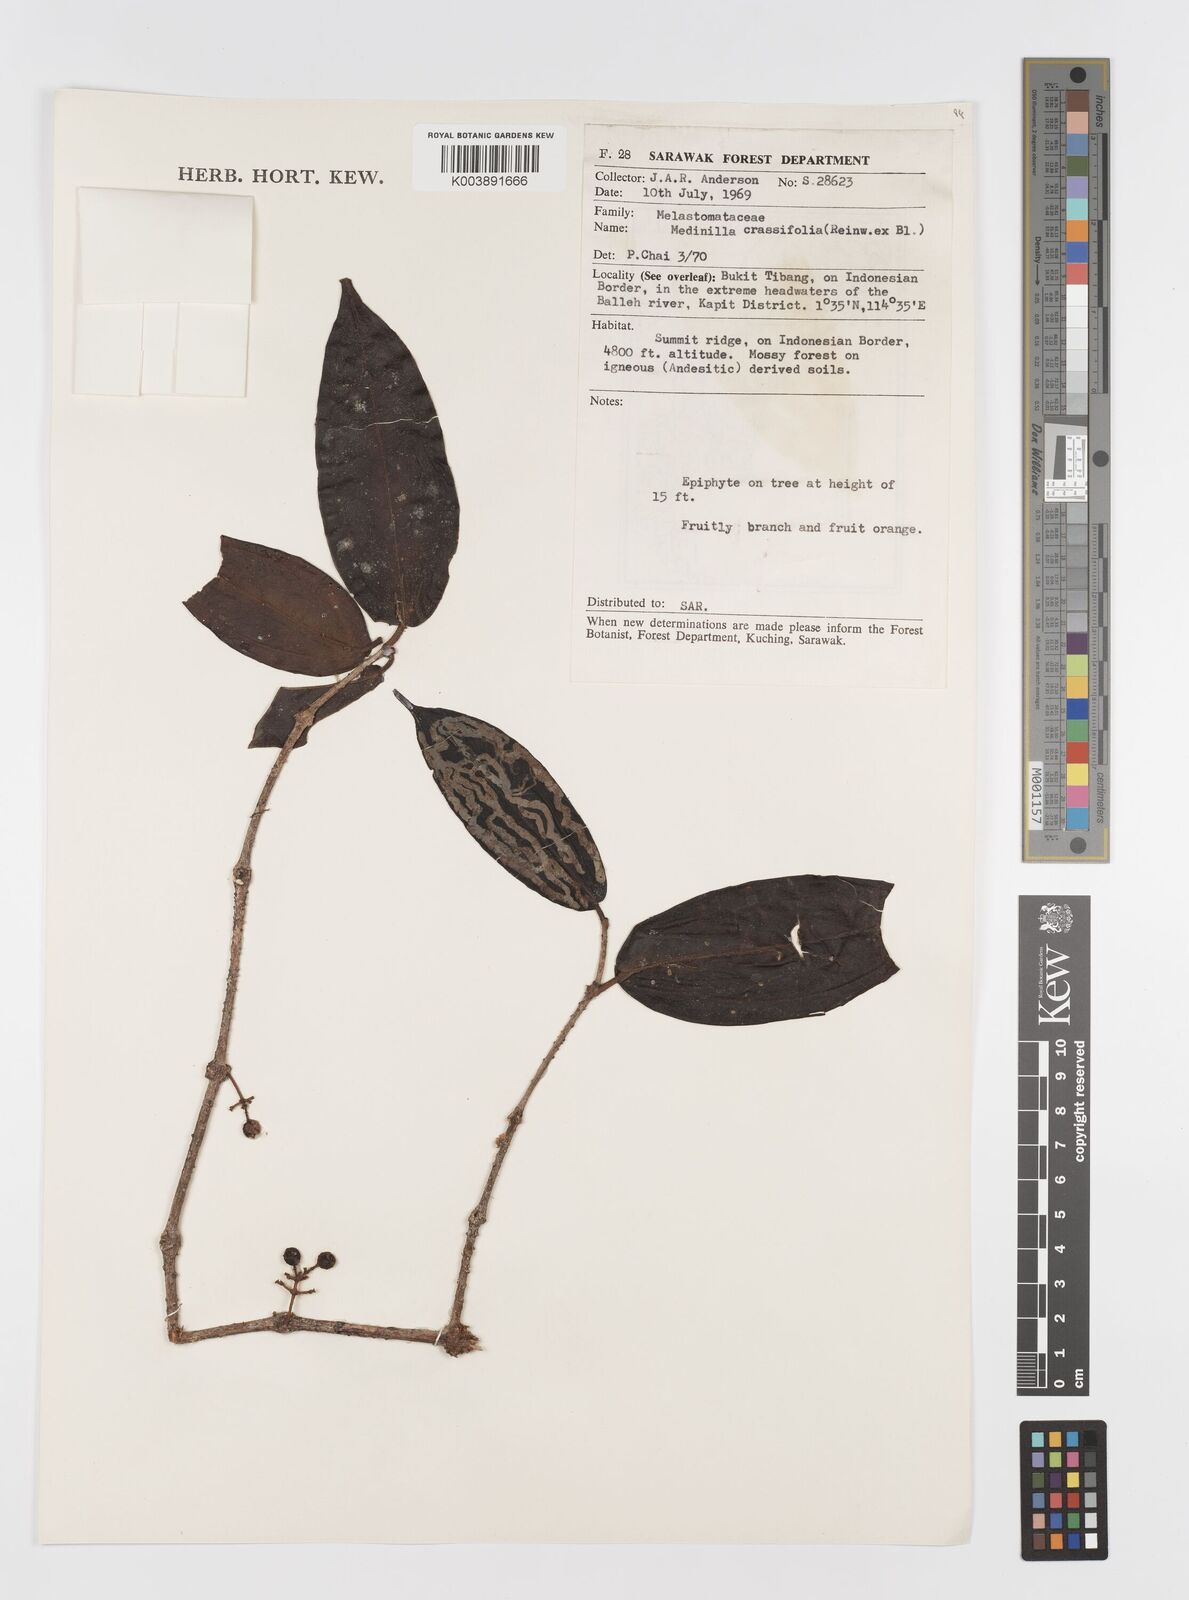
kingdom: Plantae
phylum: Tracheophyta
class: Magnoliopsida
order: Myrtales
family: Melastomataceae
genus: Medinilla
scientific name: Medinilla crassifolia
